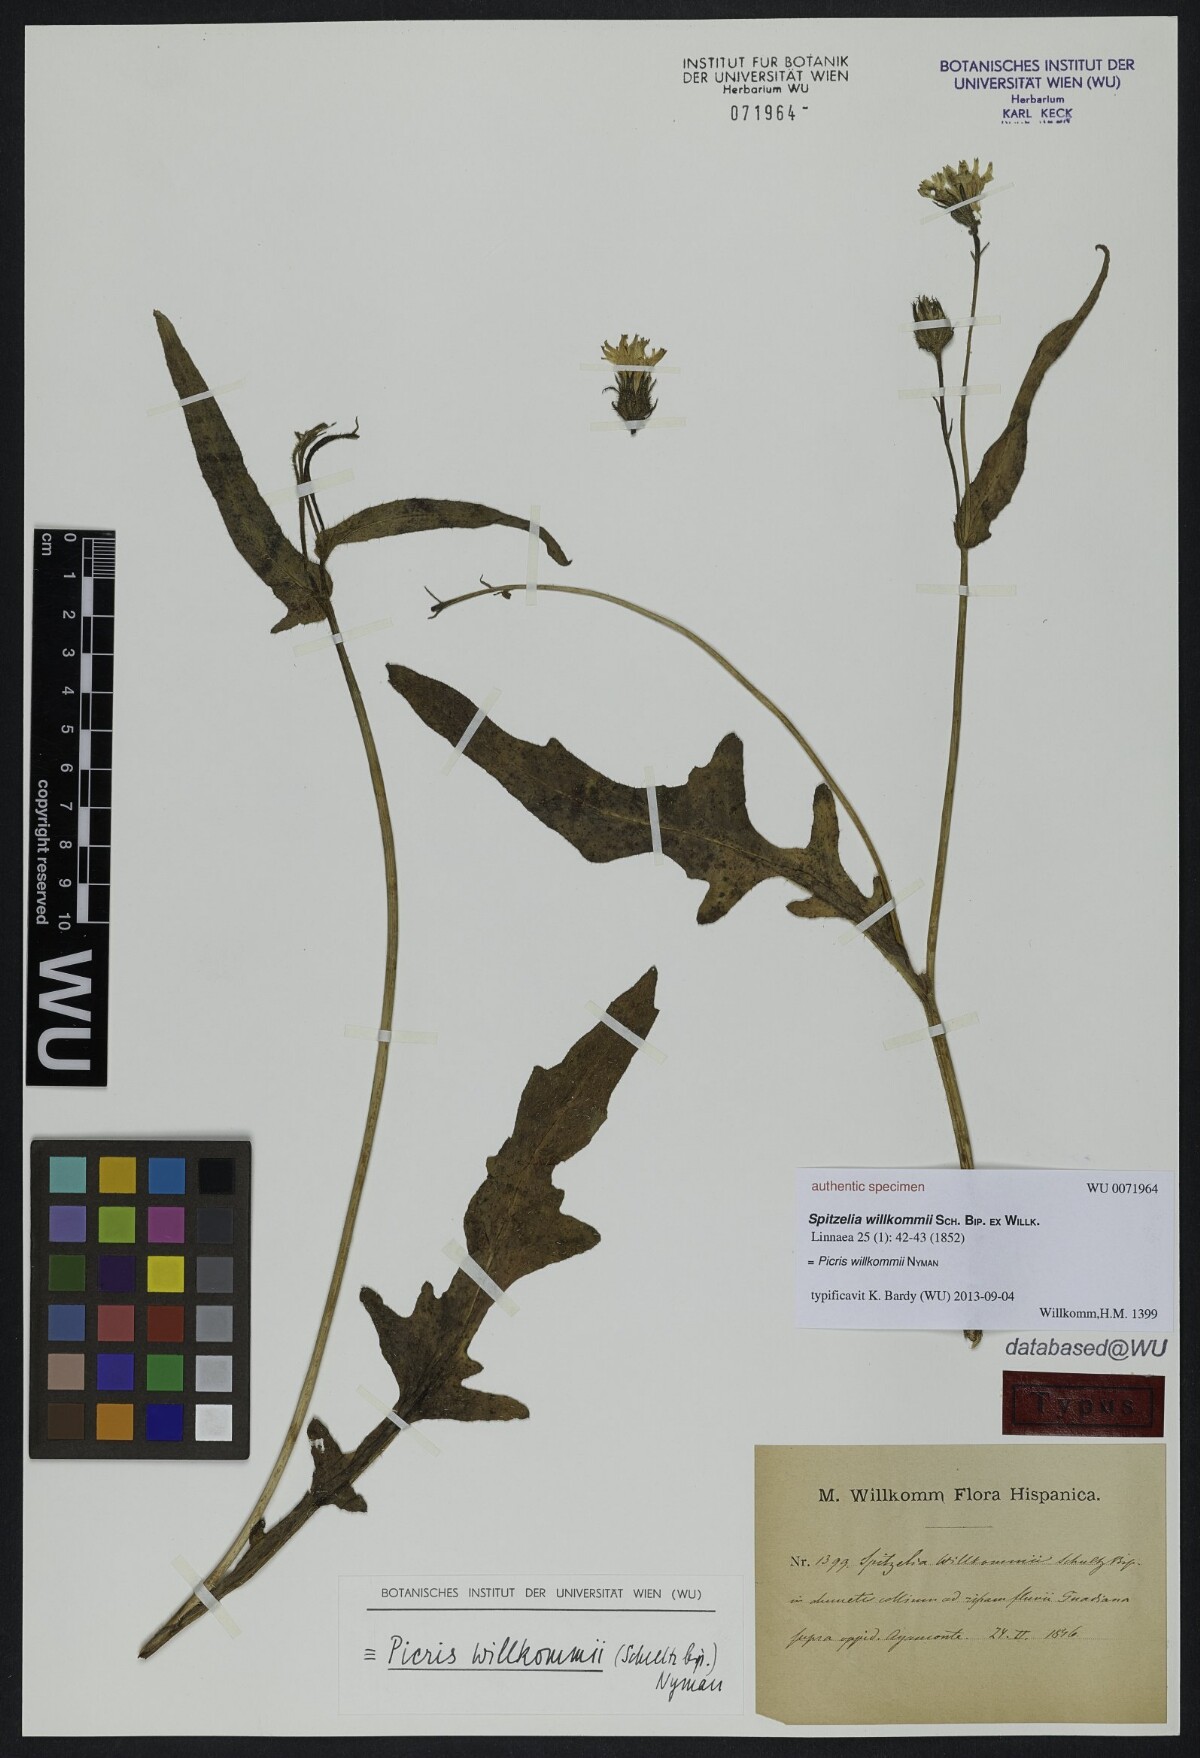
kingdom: Plantae
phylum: Tracheophyta
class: Magnoliopsida
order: Asterales
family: Asteraceae
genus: Picris
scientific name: Picris cupuligera
